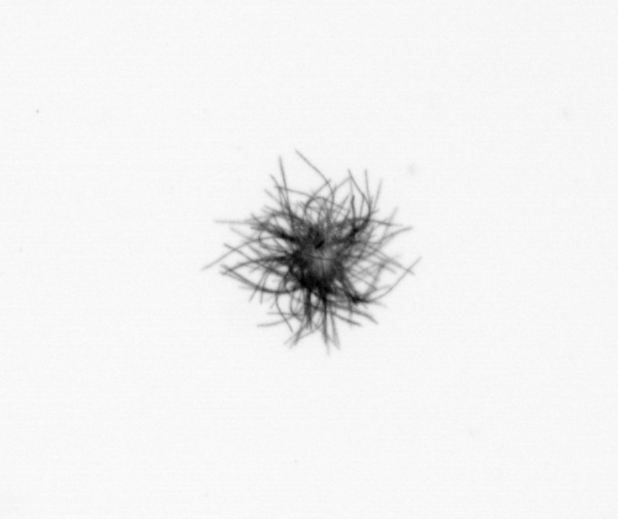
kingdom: Bacteria
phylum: Cyanobacteria
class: Cyanobacteriia
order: Cyanobacteriales
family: Microcoleaceae
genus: Trichodesmium
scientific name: Trichodesmium
